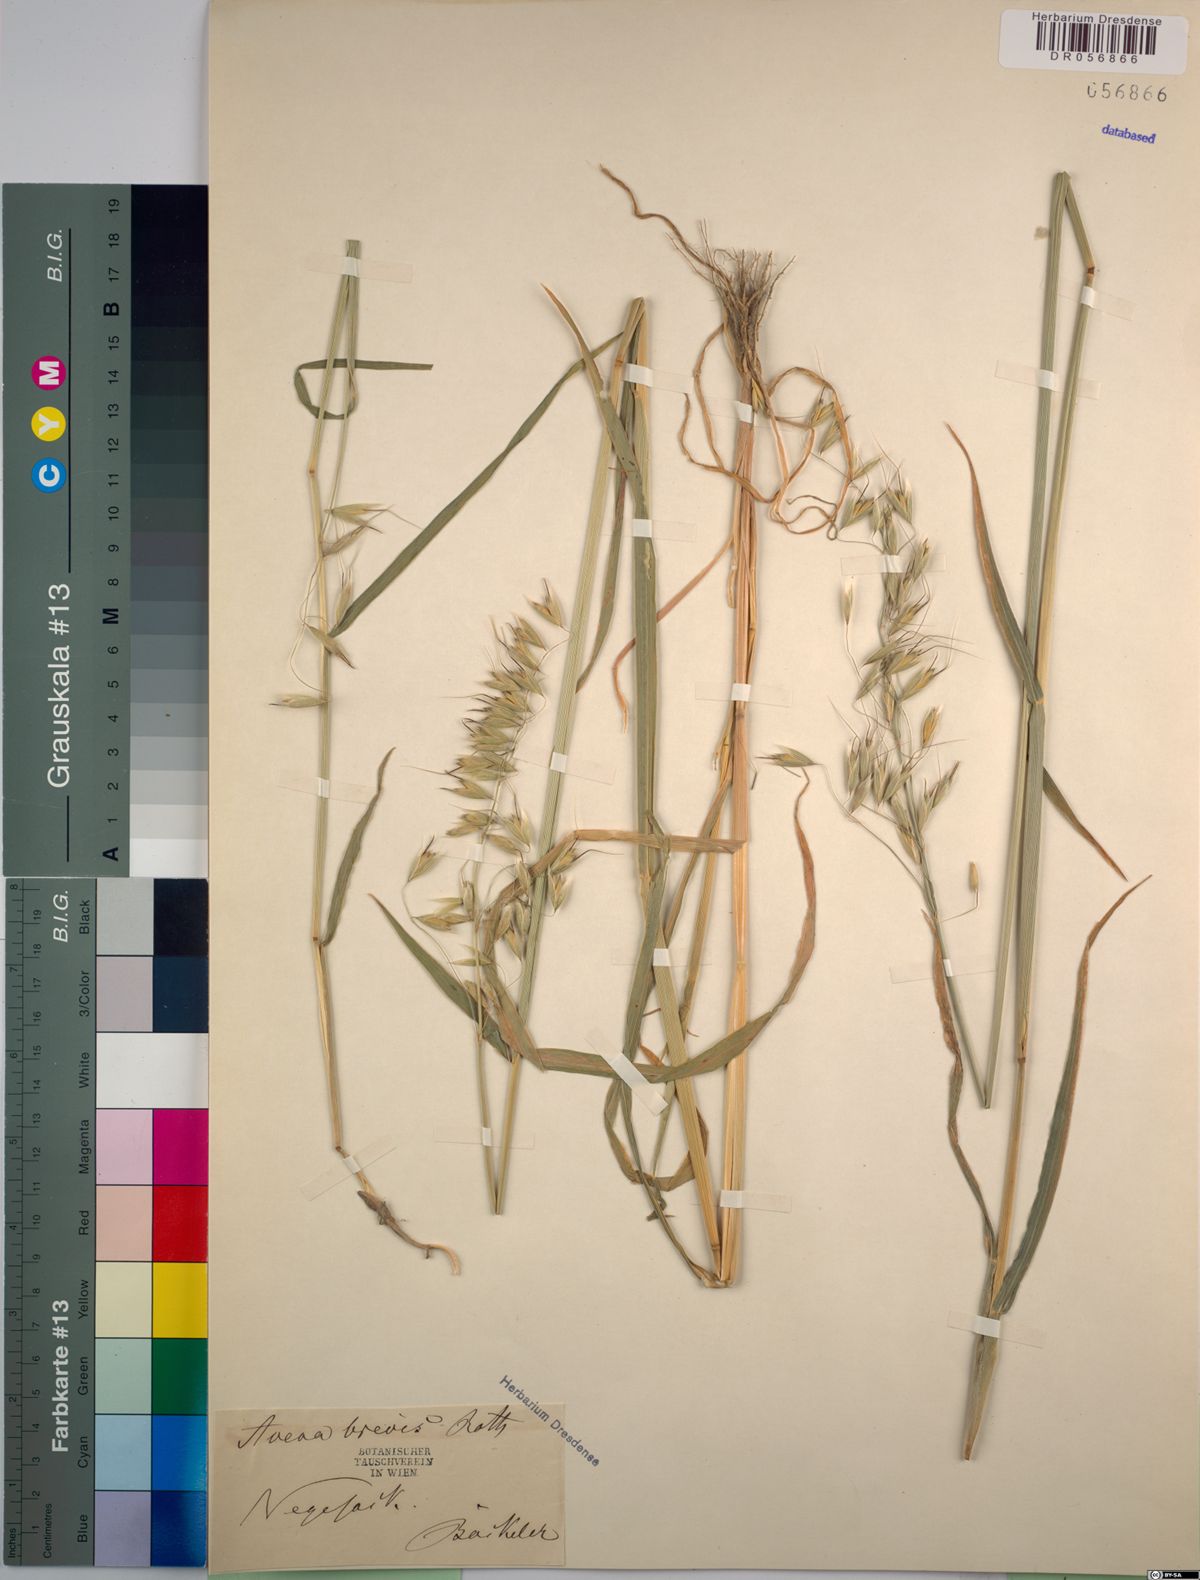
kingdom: Plantae
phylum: Tracheophyta
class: Liliopsida
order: Poales
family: Poaceae
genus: Avena
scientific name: Avena brevis
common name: Short oat
